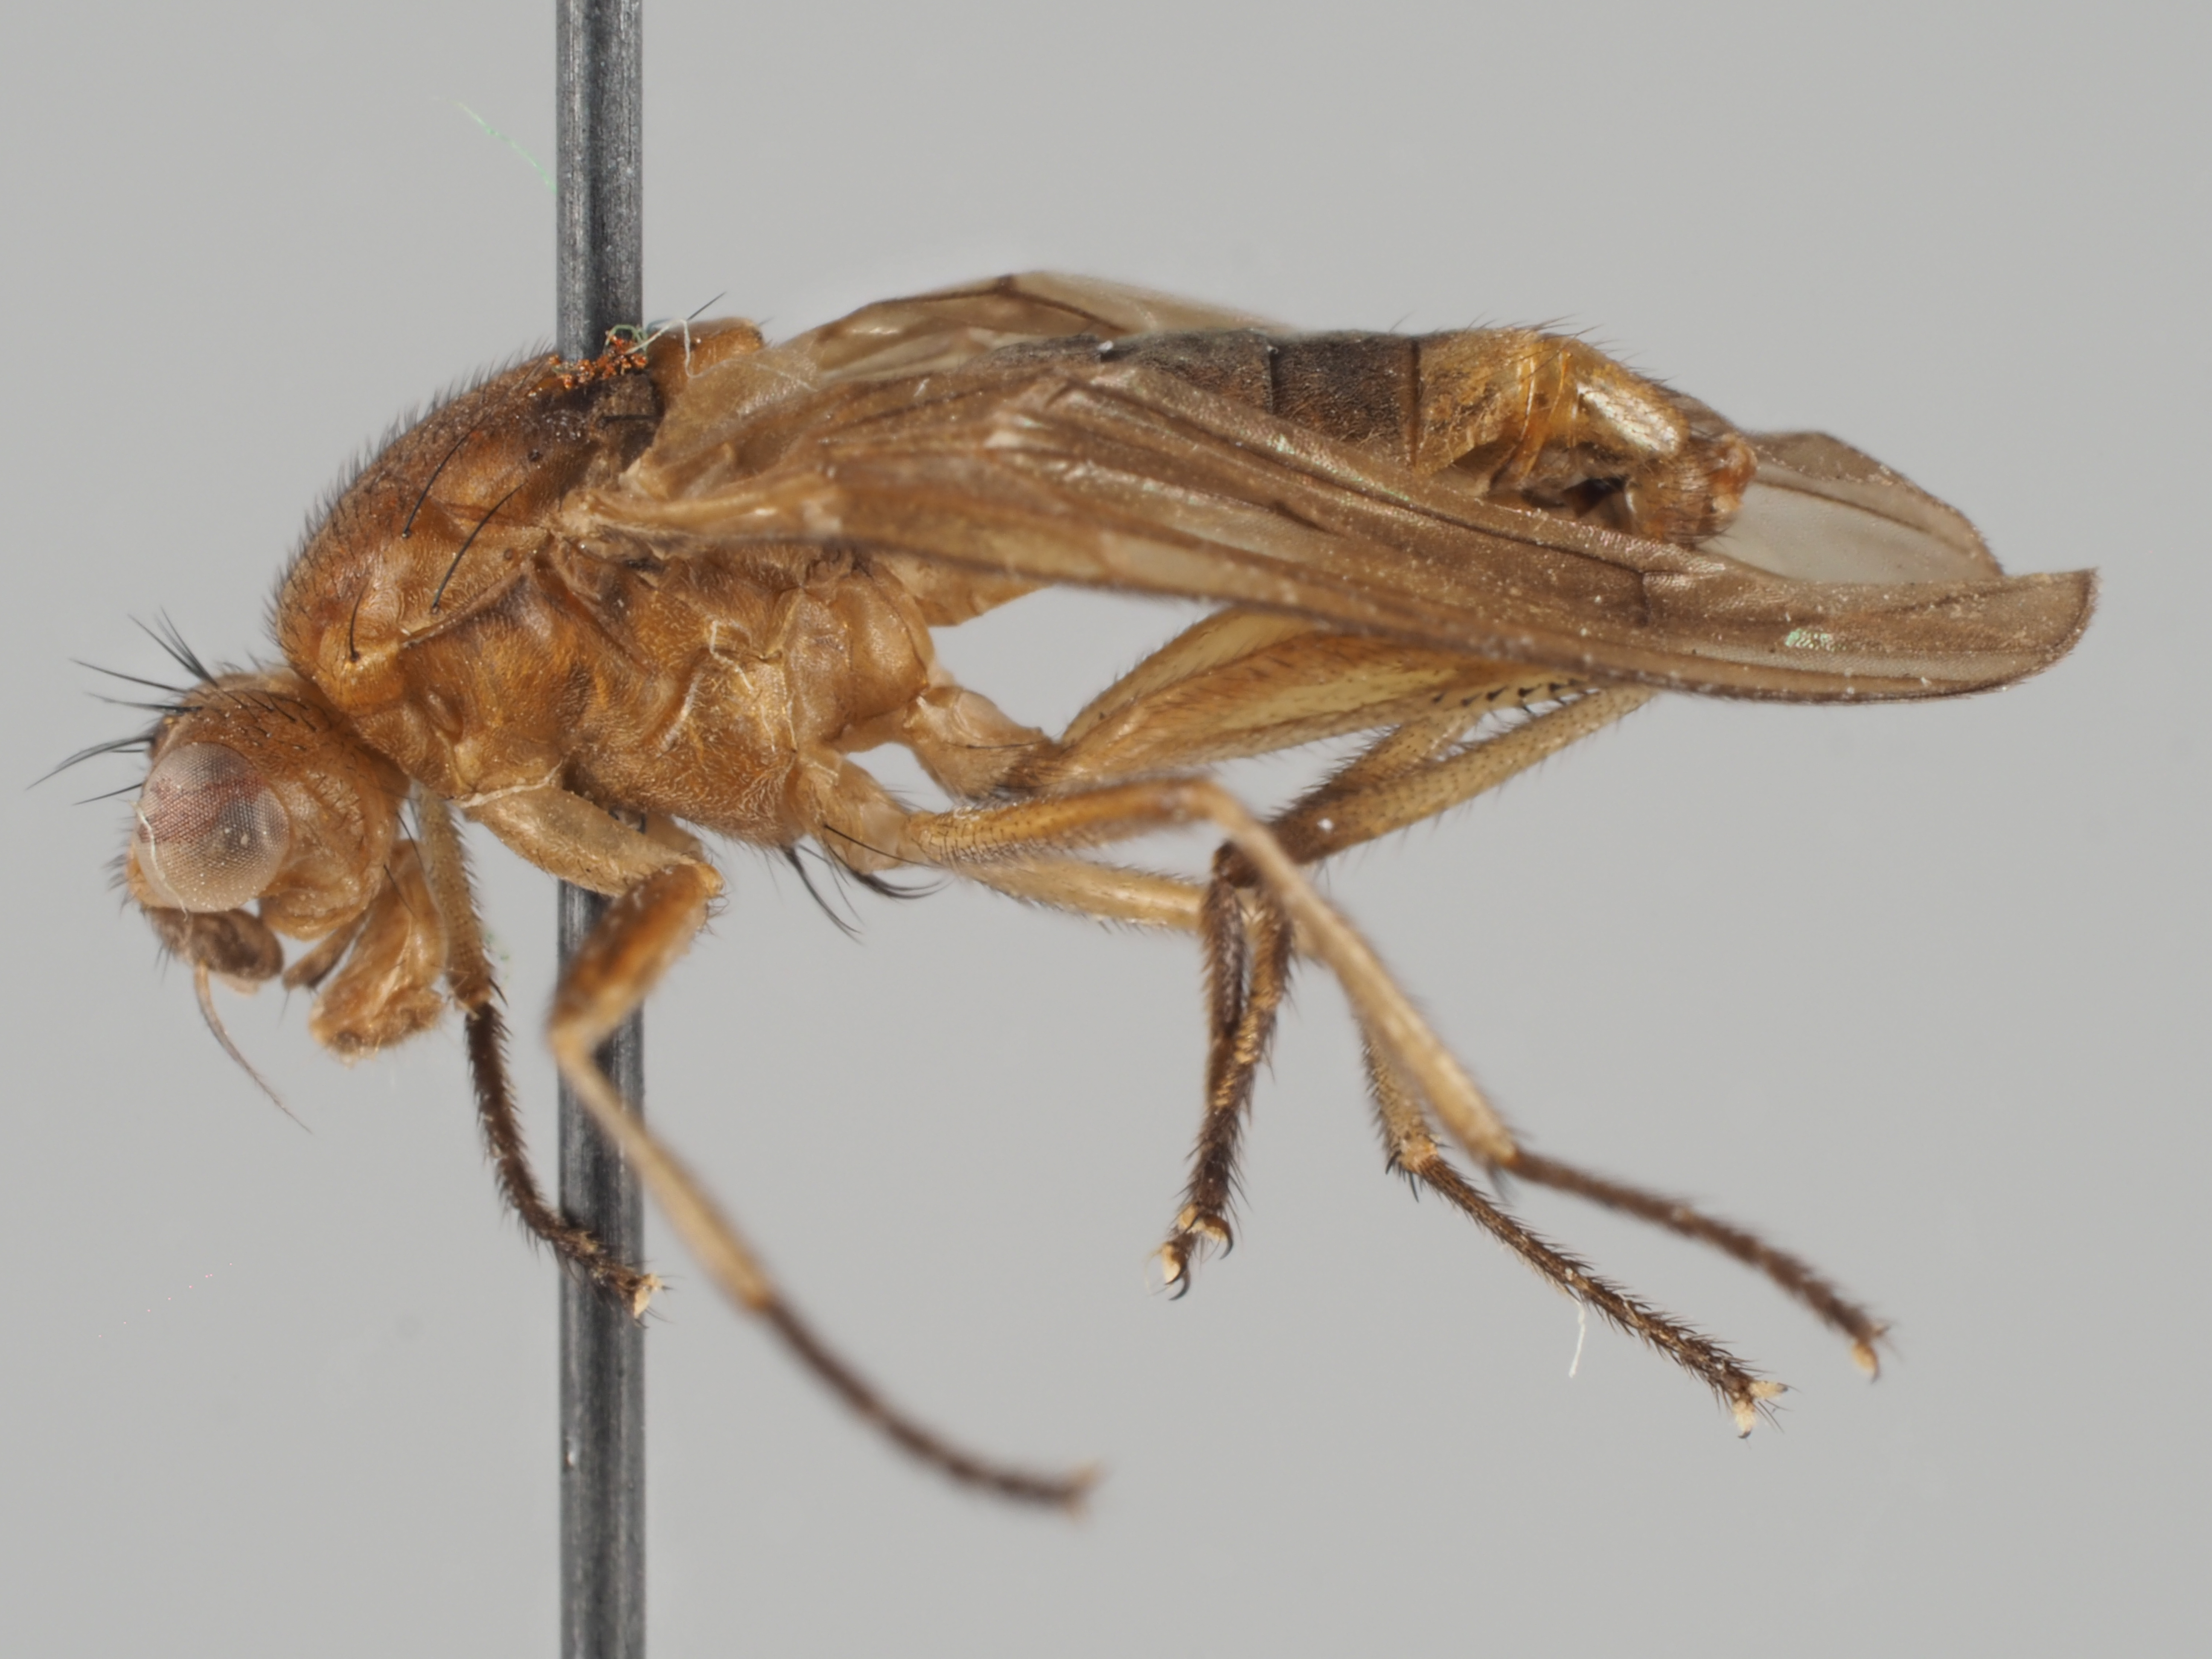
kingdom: Animalia
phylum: Arthropoda
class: Insecta
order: Diptera
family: Dryomyzidae
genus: Paradryomyza
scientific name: Paradryomyza spinigera
